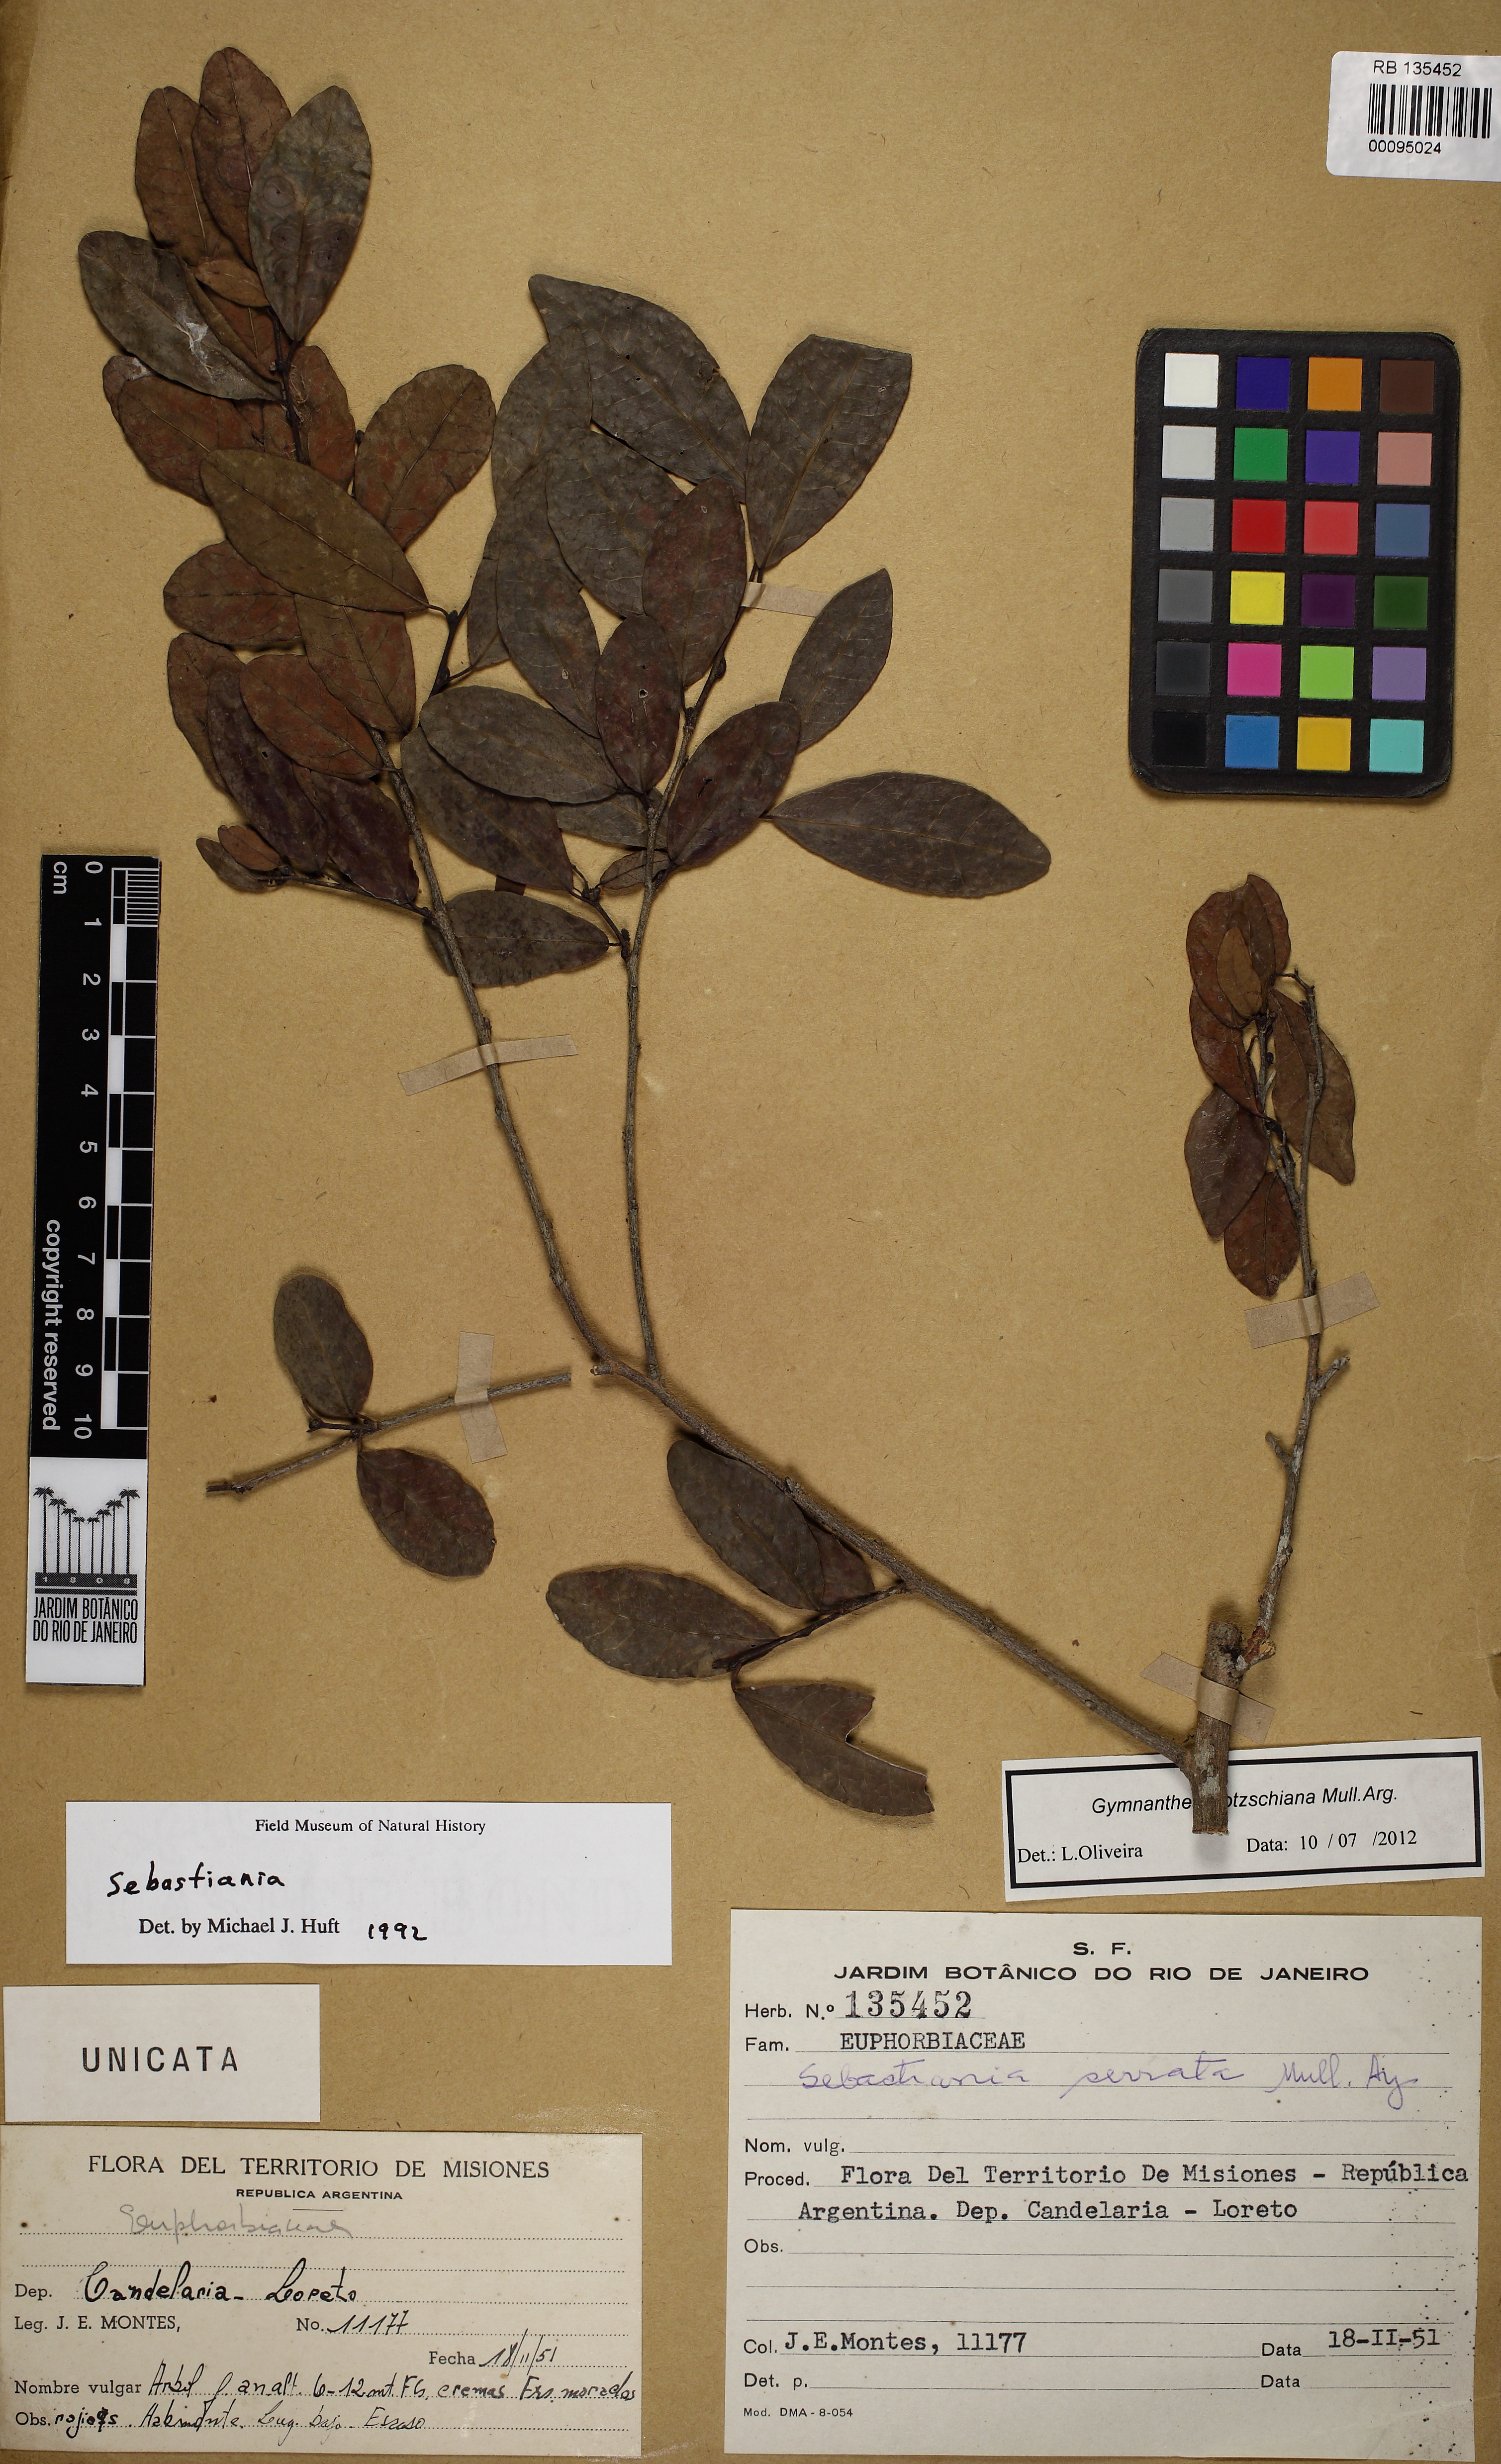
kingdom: Plantae
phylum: Tracheophyta
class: Magnoliopsida
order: Malpighiales
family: Euphorbiaceae
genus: Sebastiania
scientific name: Sebastiania serrata
